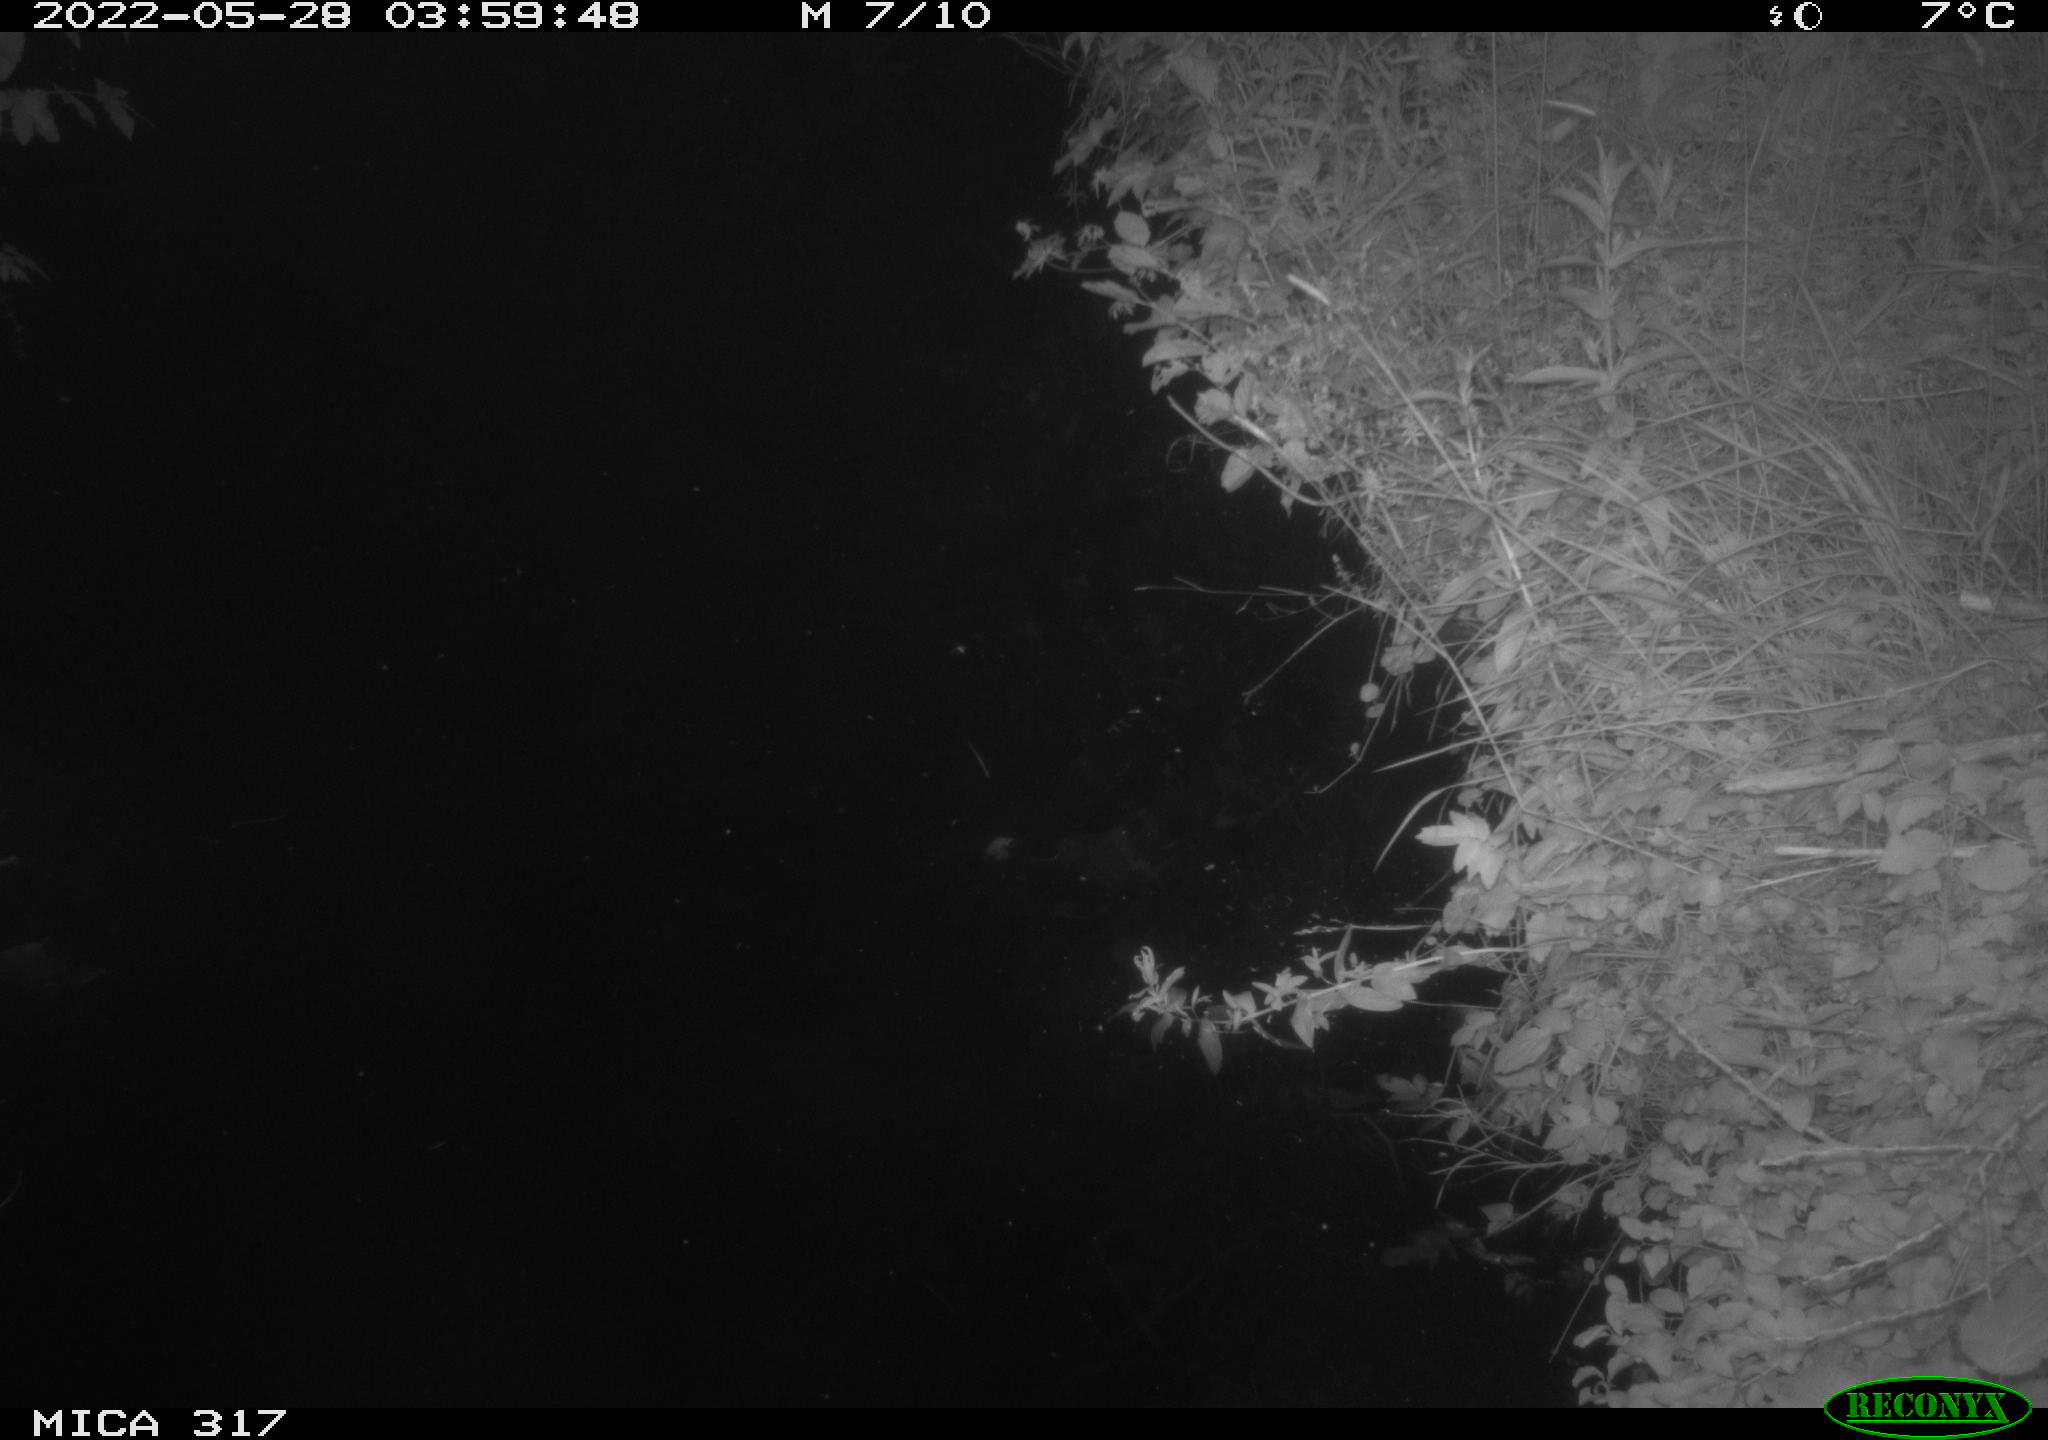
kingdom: Animalia
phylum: Chordata
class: Aves
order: Anseriformes
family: Anatidae
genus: Anas
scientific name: Anas
